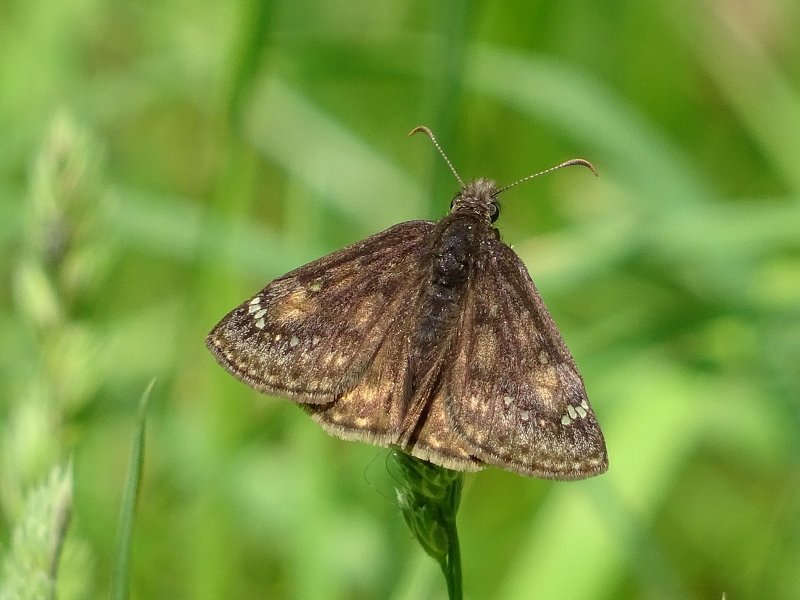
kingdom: Animalia
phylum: Arthropoda
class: Insecta
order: Lepidoptera
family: Hesperiidae
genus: Gesta
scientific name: Gesta
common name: Juvenal's Duskywing
